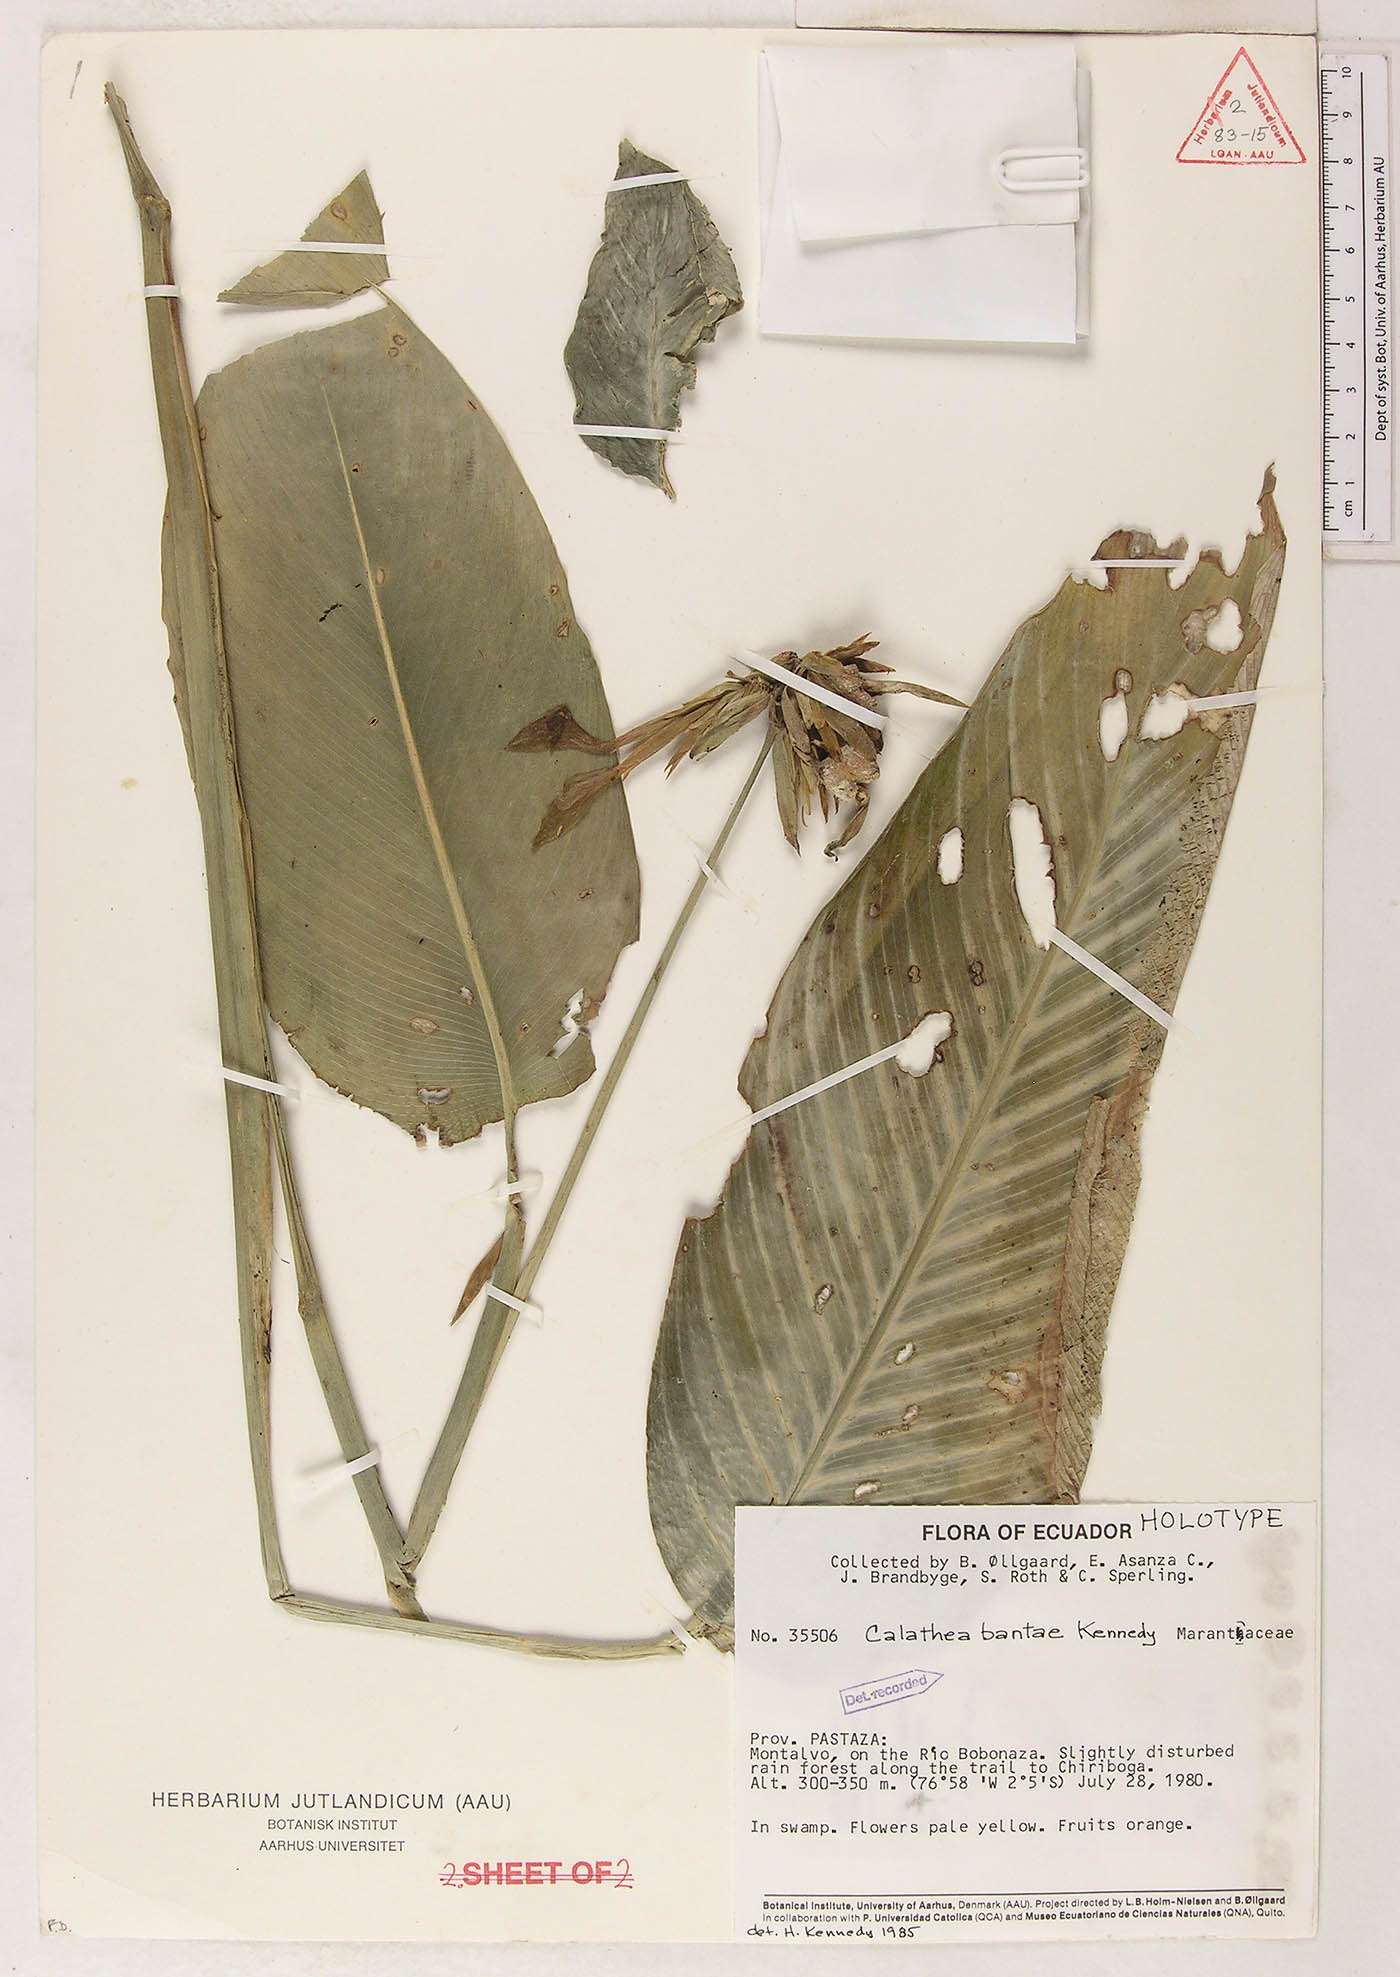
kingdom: Plantae
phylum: Tracheophyta
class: Liliopsida
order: Zingiberales
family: Marantaceae
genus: Goeppertia
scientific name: Goeppertia bantae
